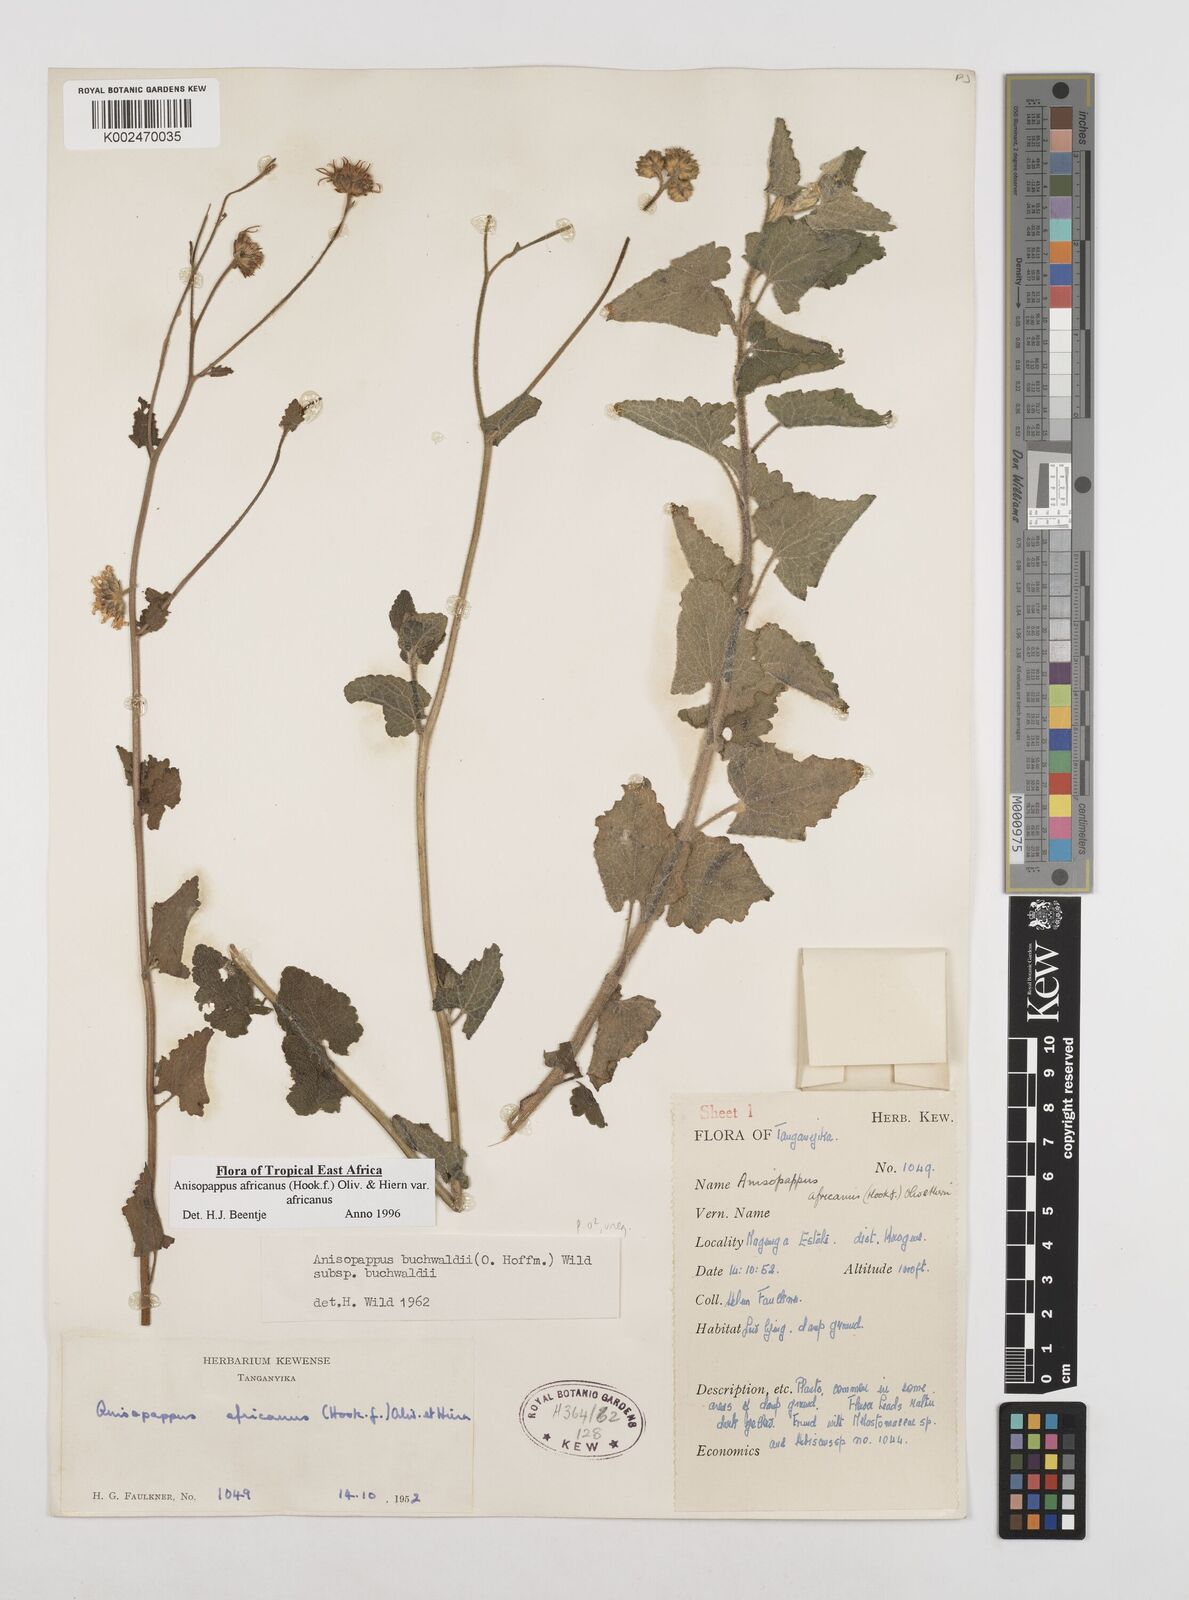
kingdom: Plantae
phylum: Tracheophyta
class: Magnoliopsida
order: Asterales
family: Asteraceae
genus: Anisopappus
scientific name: Anisopappus buchwaldii
